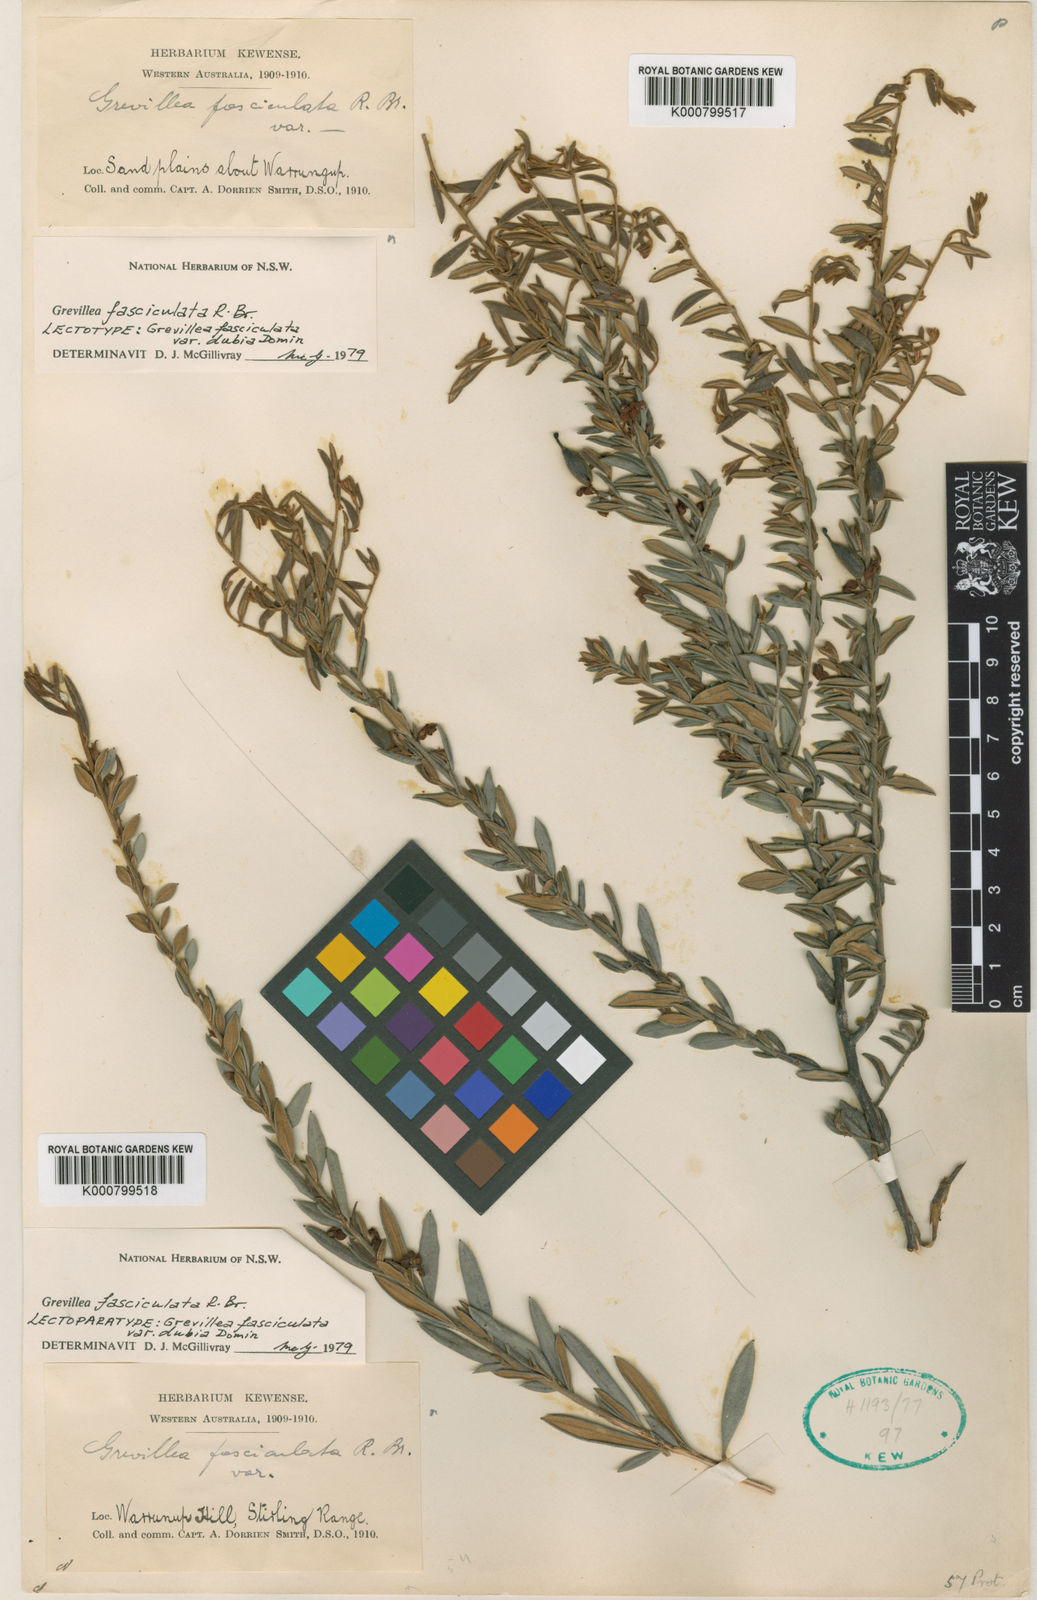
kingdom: Plantae
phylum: Tracheophyta
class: Magnoliopsida
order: Proteales
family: Proteaceae
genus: Grevillea
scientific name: Grevillea fasciculata
